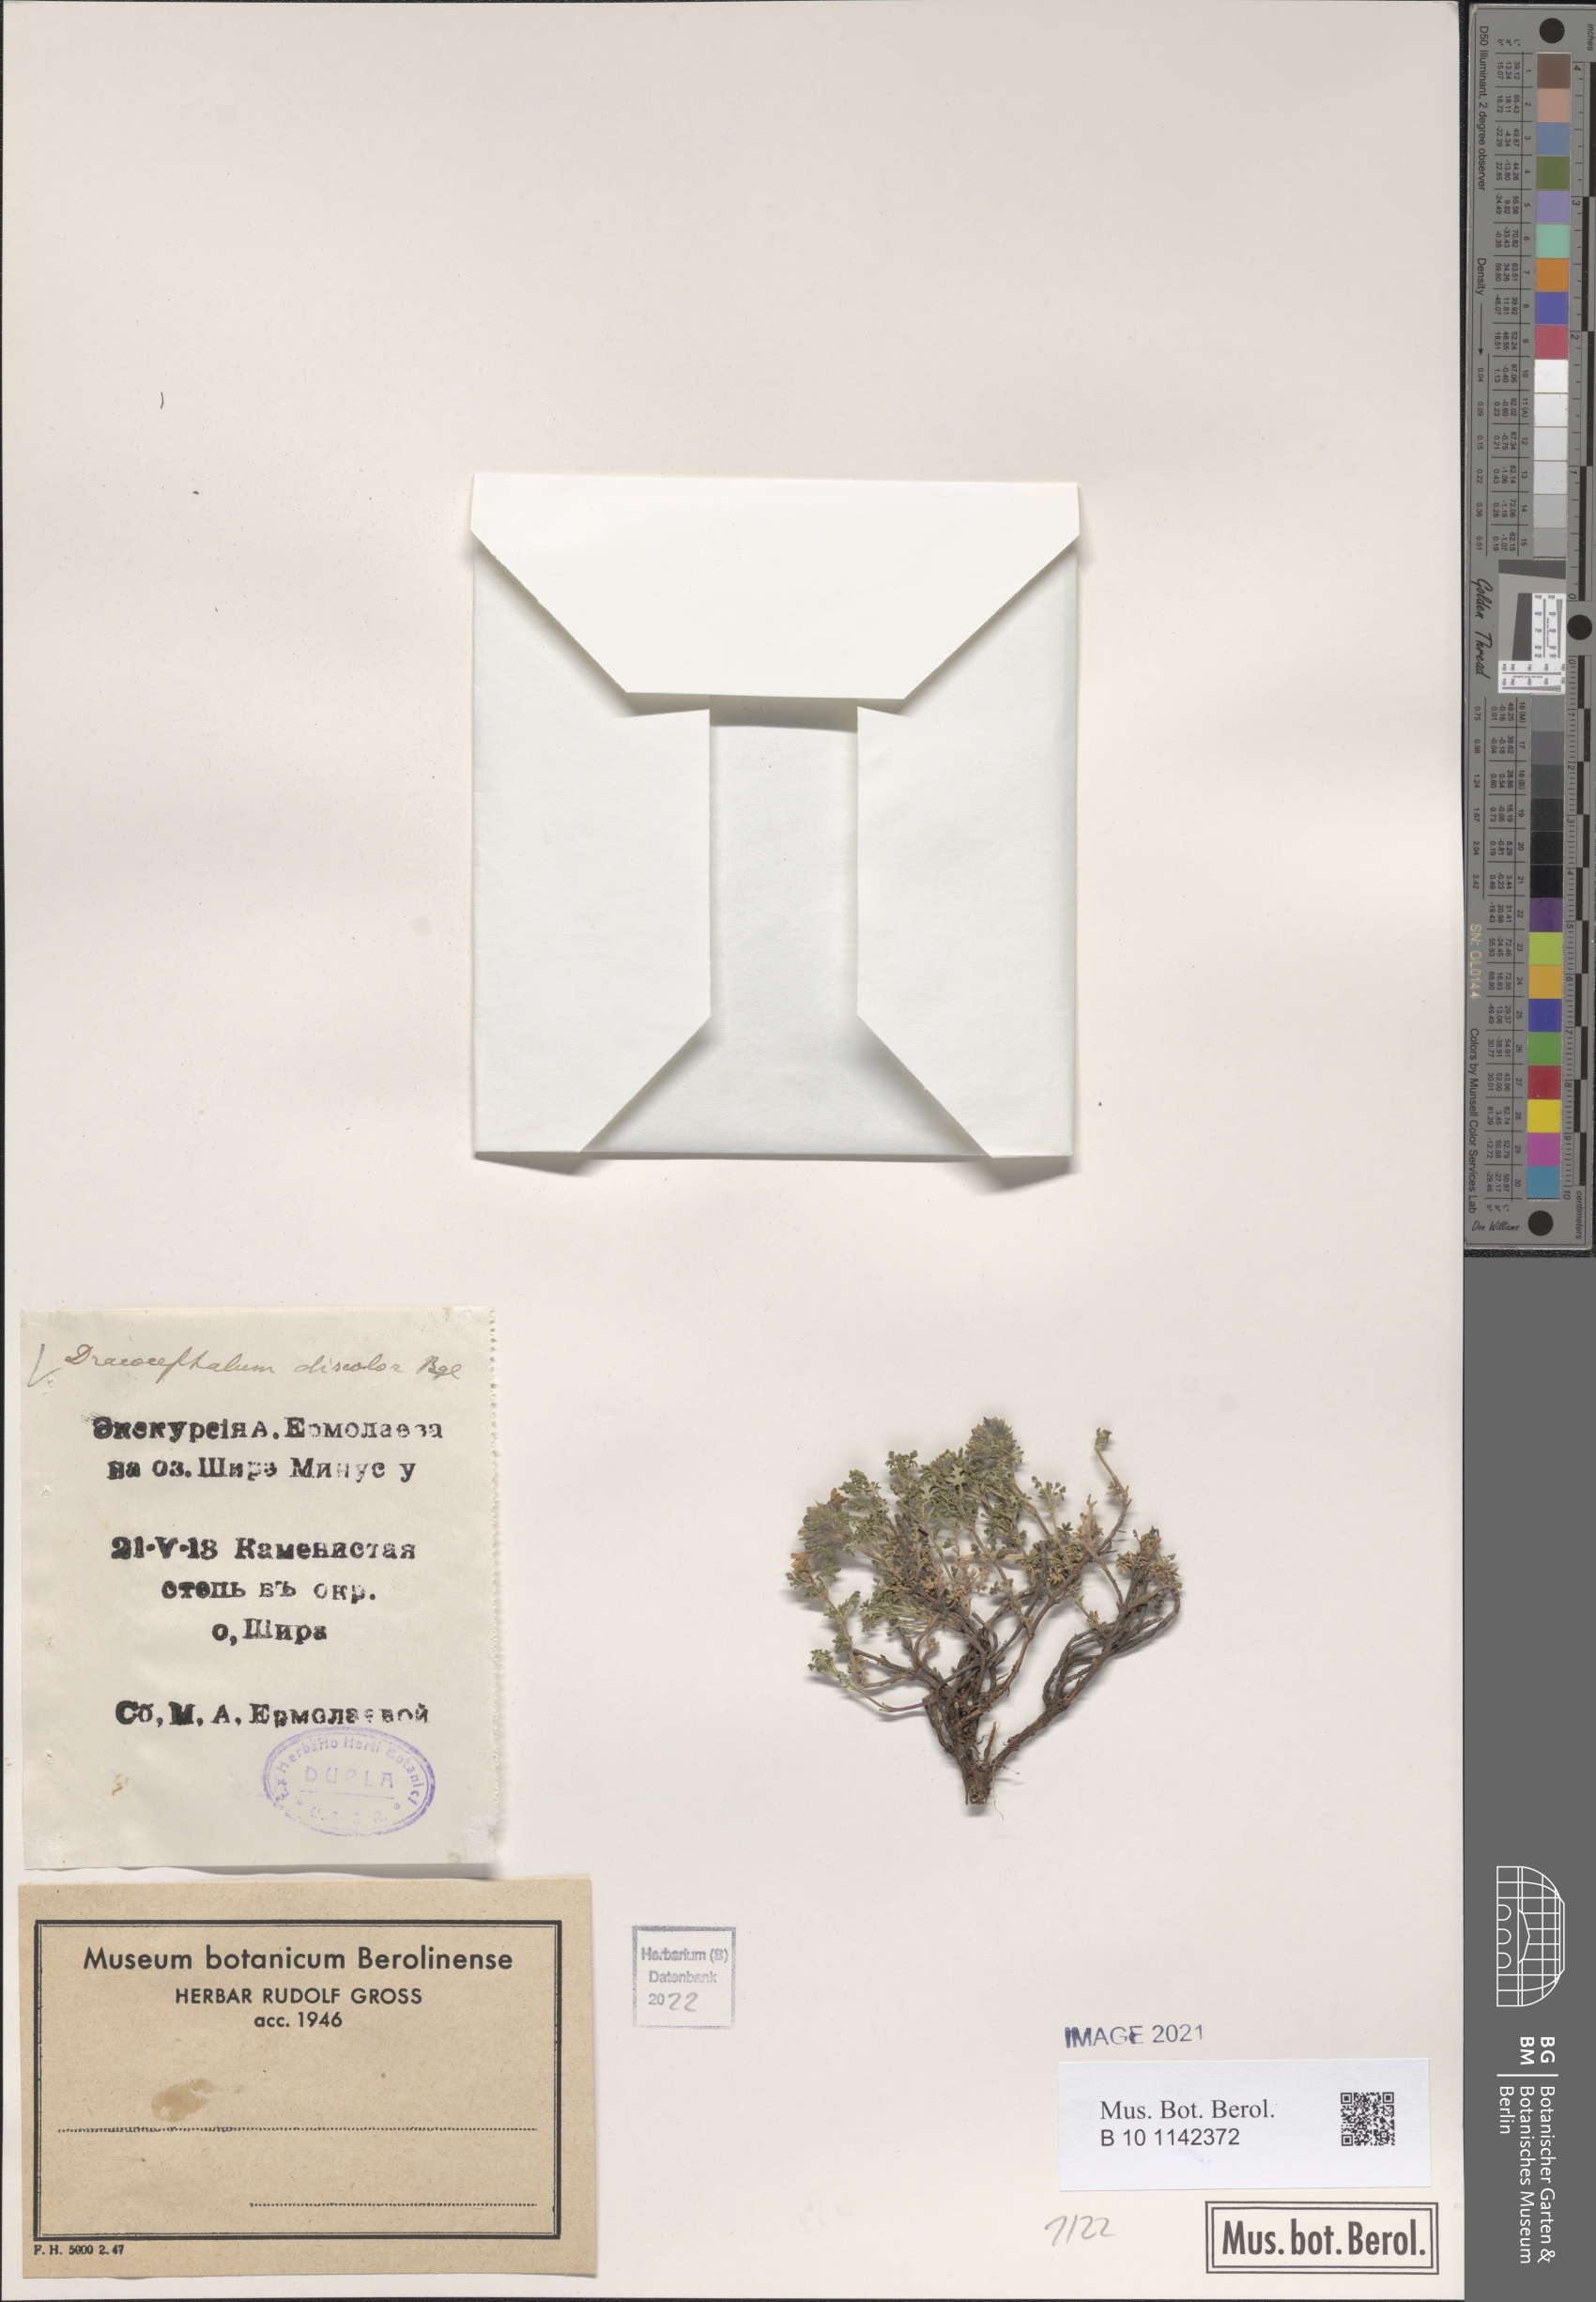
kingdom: Plantae
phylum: Tracheophyta
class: Magnoliopsida
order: Lamiales
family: Lamiaceae
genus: Dracocephalum
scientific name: Dracocephalum discolor
